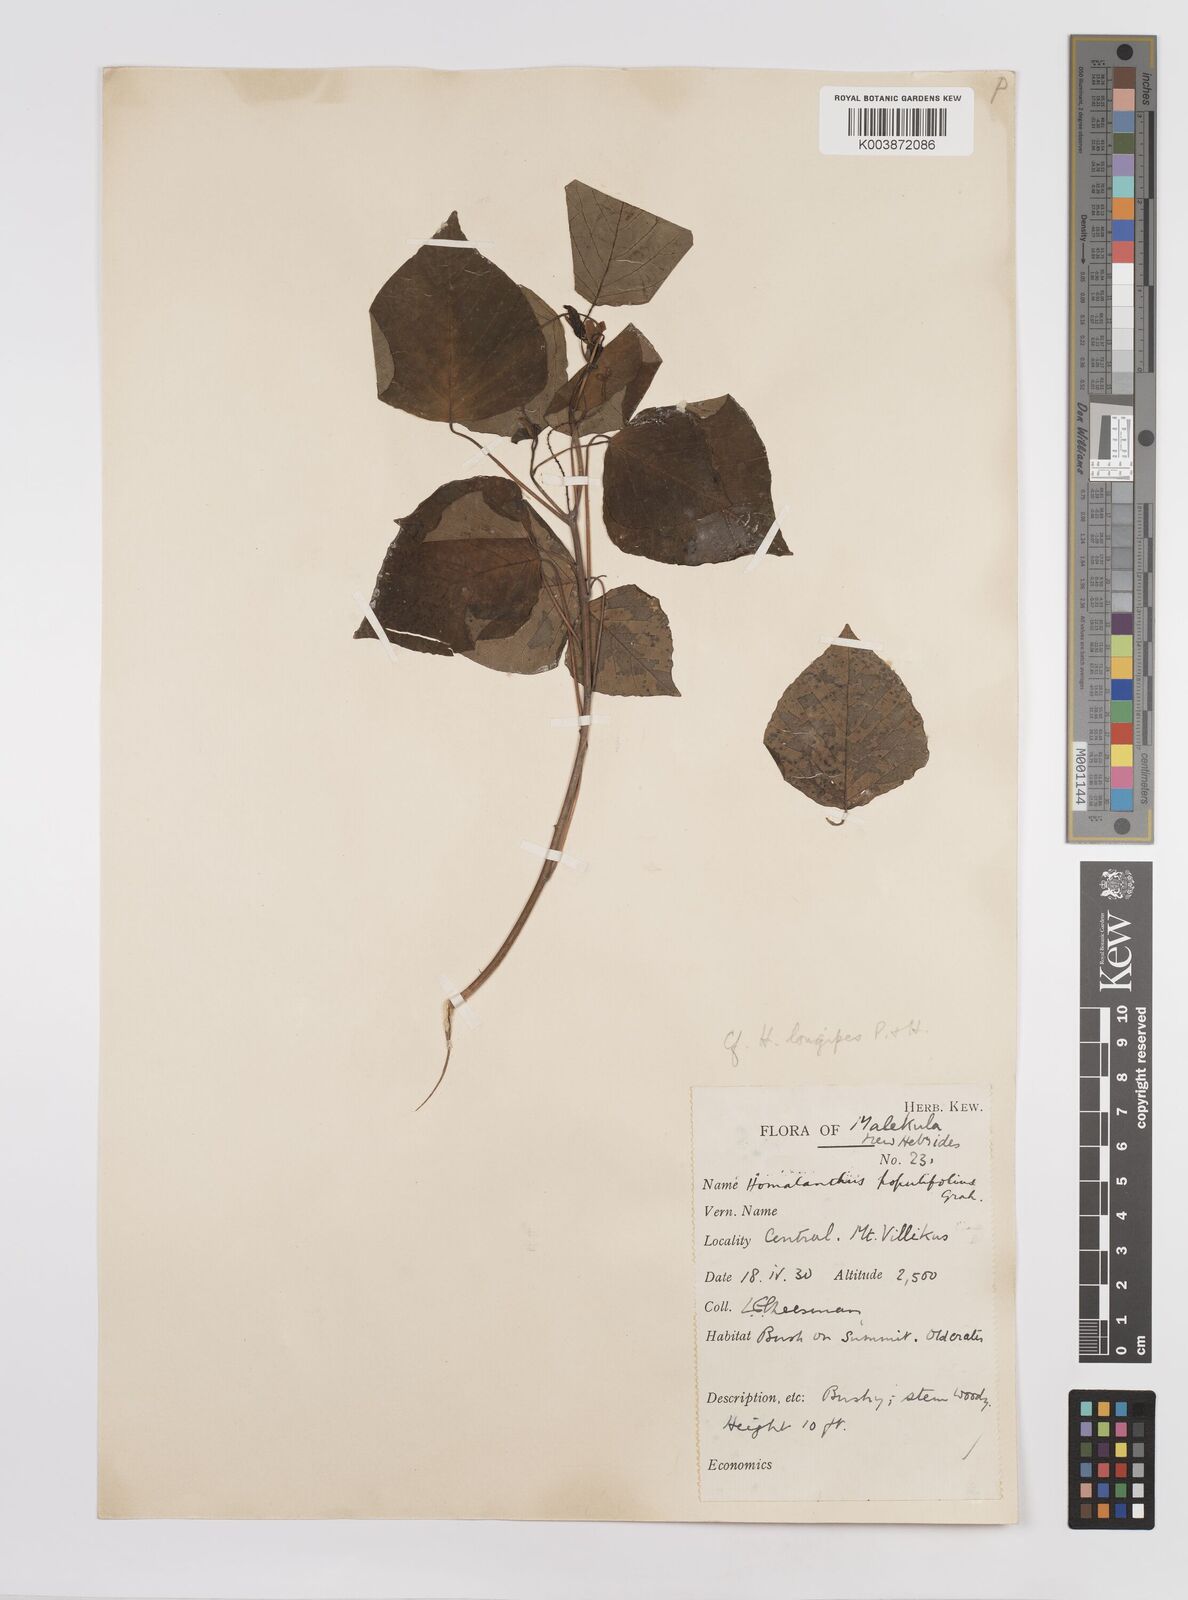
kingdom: Plantae
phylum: Tracheophyta
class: Magnoliopsida
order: Malpighiales
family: Euphorbiaceae
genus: Homalanthus
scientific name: Homalanthus longipes
